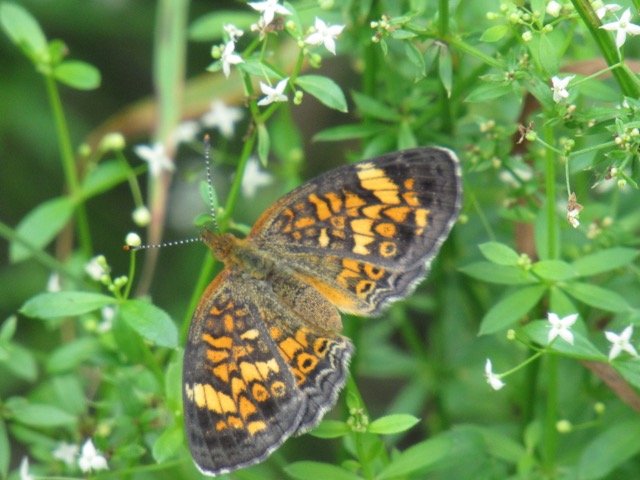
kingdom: Animalia
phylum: Arthropoda
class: Insecta
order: Lepidoptera
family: Nymphalidae
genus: Phyciodes
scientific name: Phyciodes tharos
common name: Pearl Crescent
